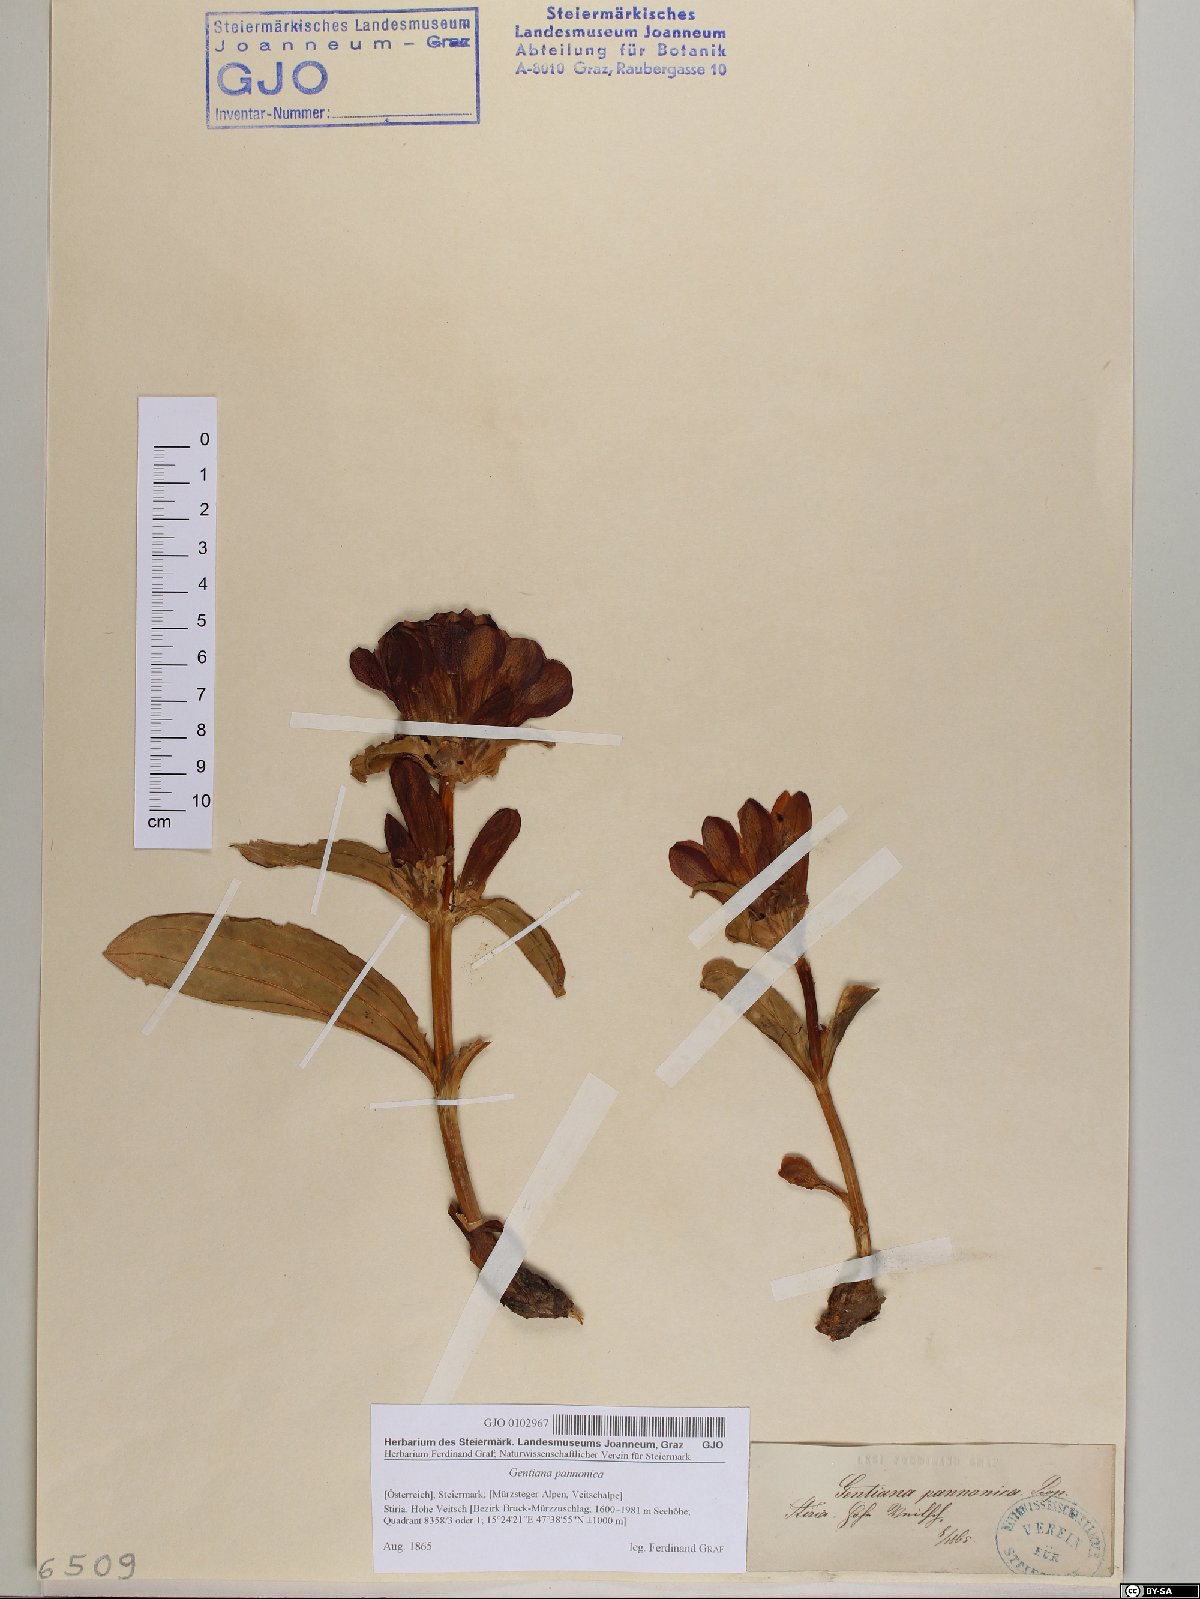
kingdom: Plantae
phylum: Tracheophyta
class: Magnoliopsida
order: Gentianales
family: Gentianaceae
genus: Gentiana
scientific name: Gentiana pannonica
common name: Hungarian gentian
